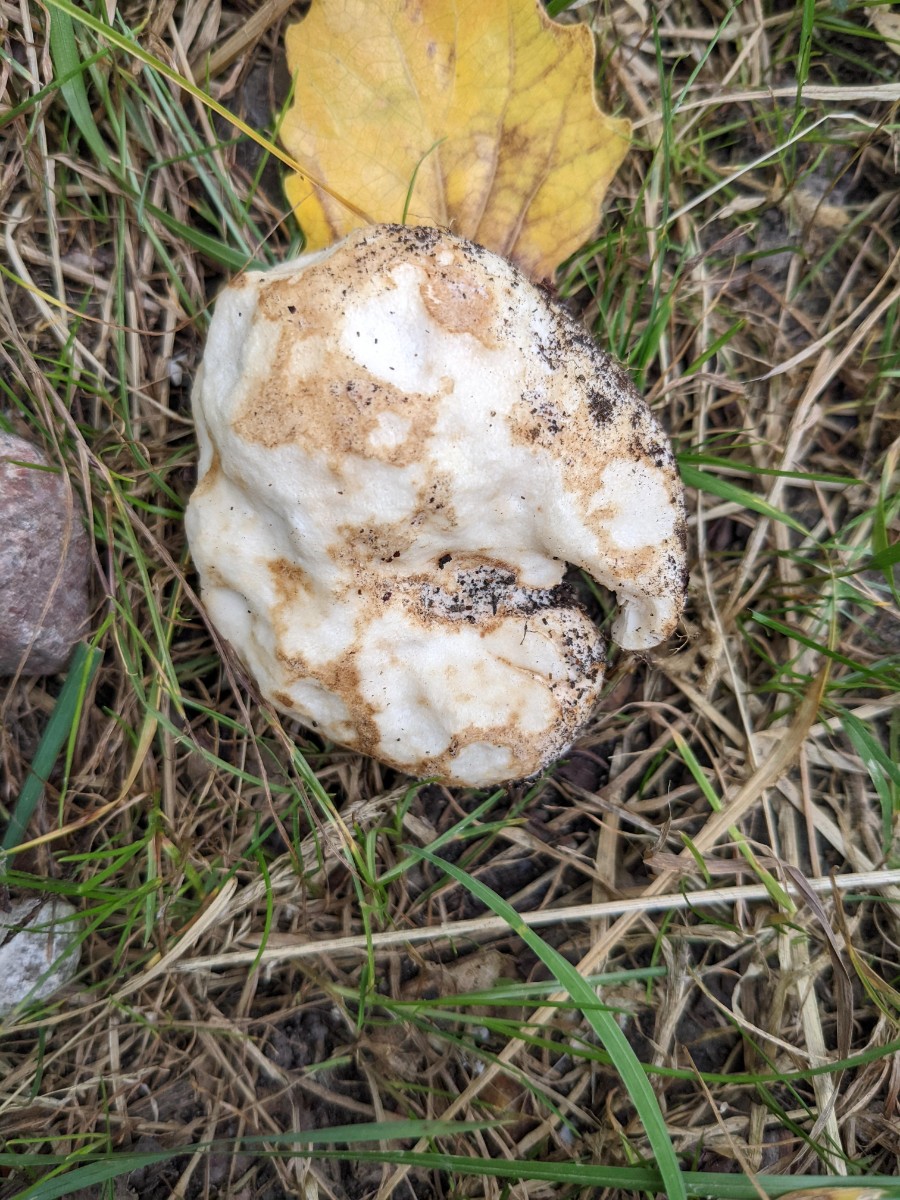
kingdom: Fungi
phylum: Basidiomycota
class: Agaricomycetes
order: Russulales
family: Russulaceae
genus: Russula
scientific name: Russula
